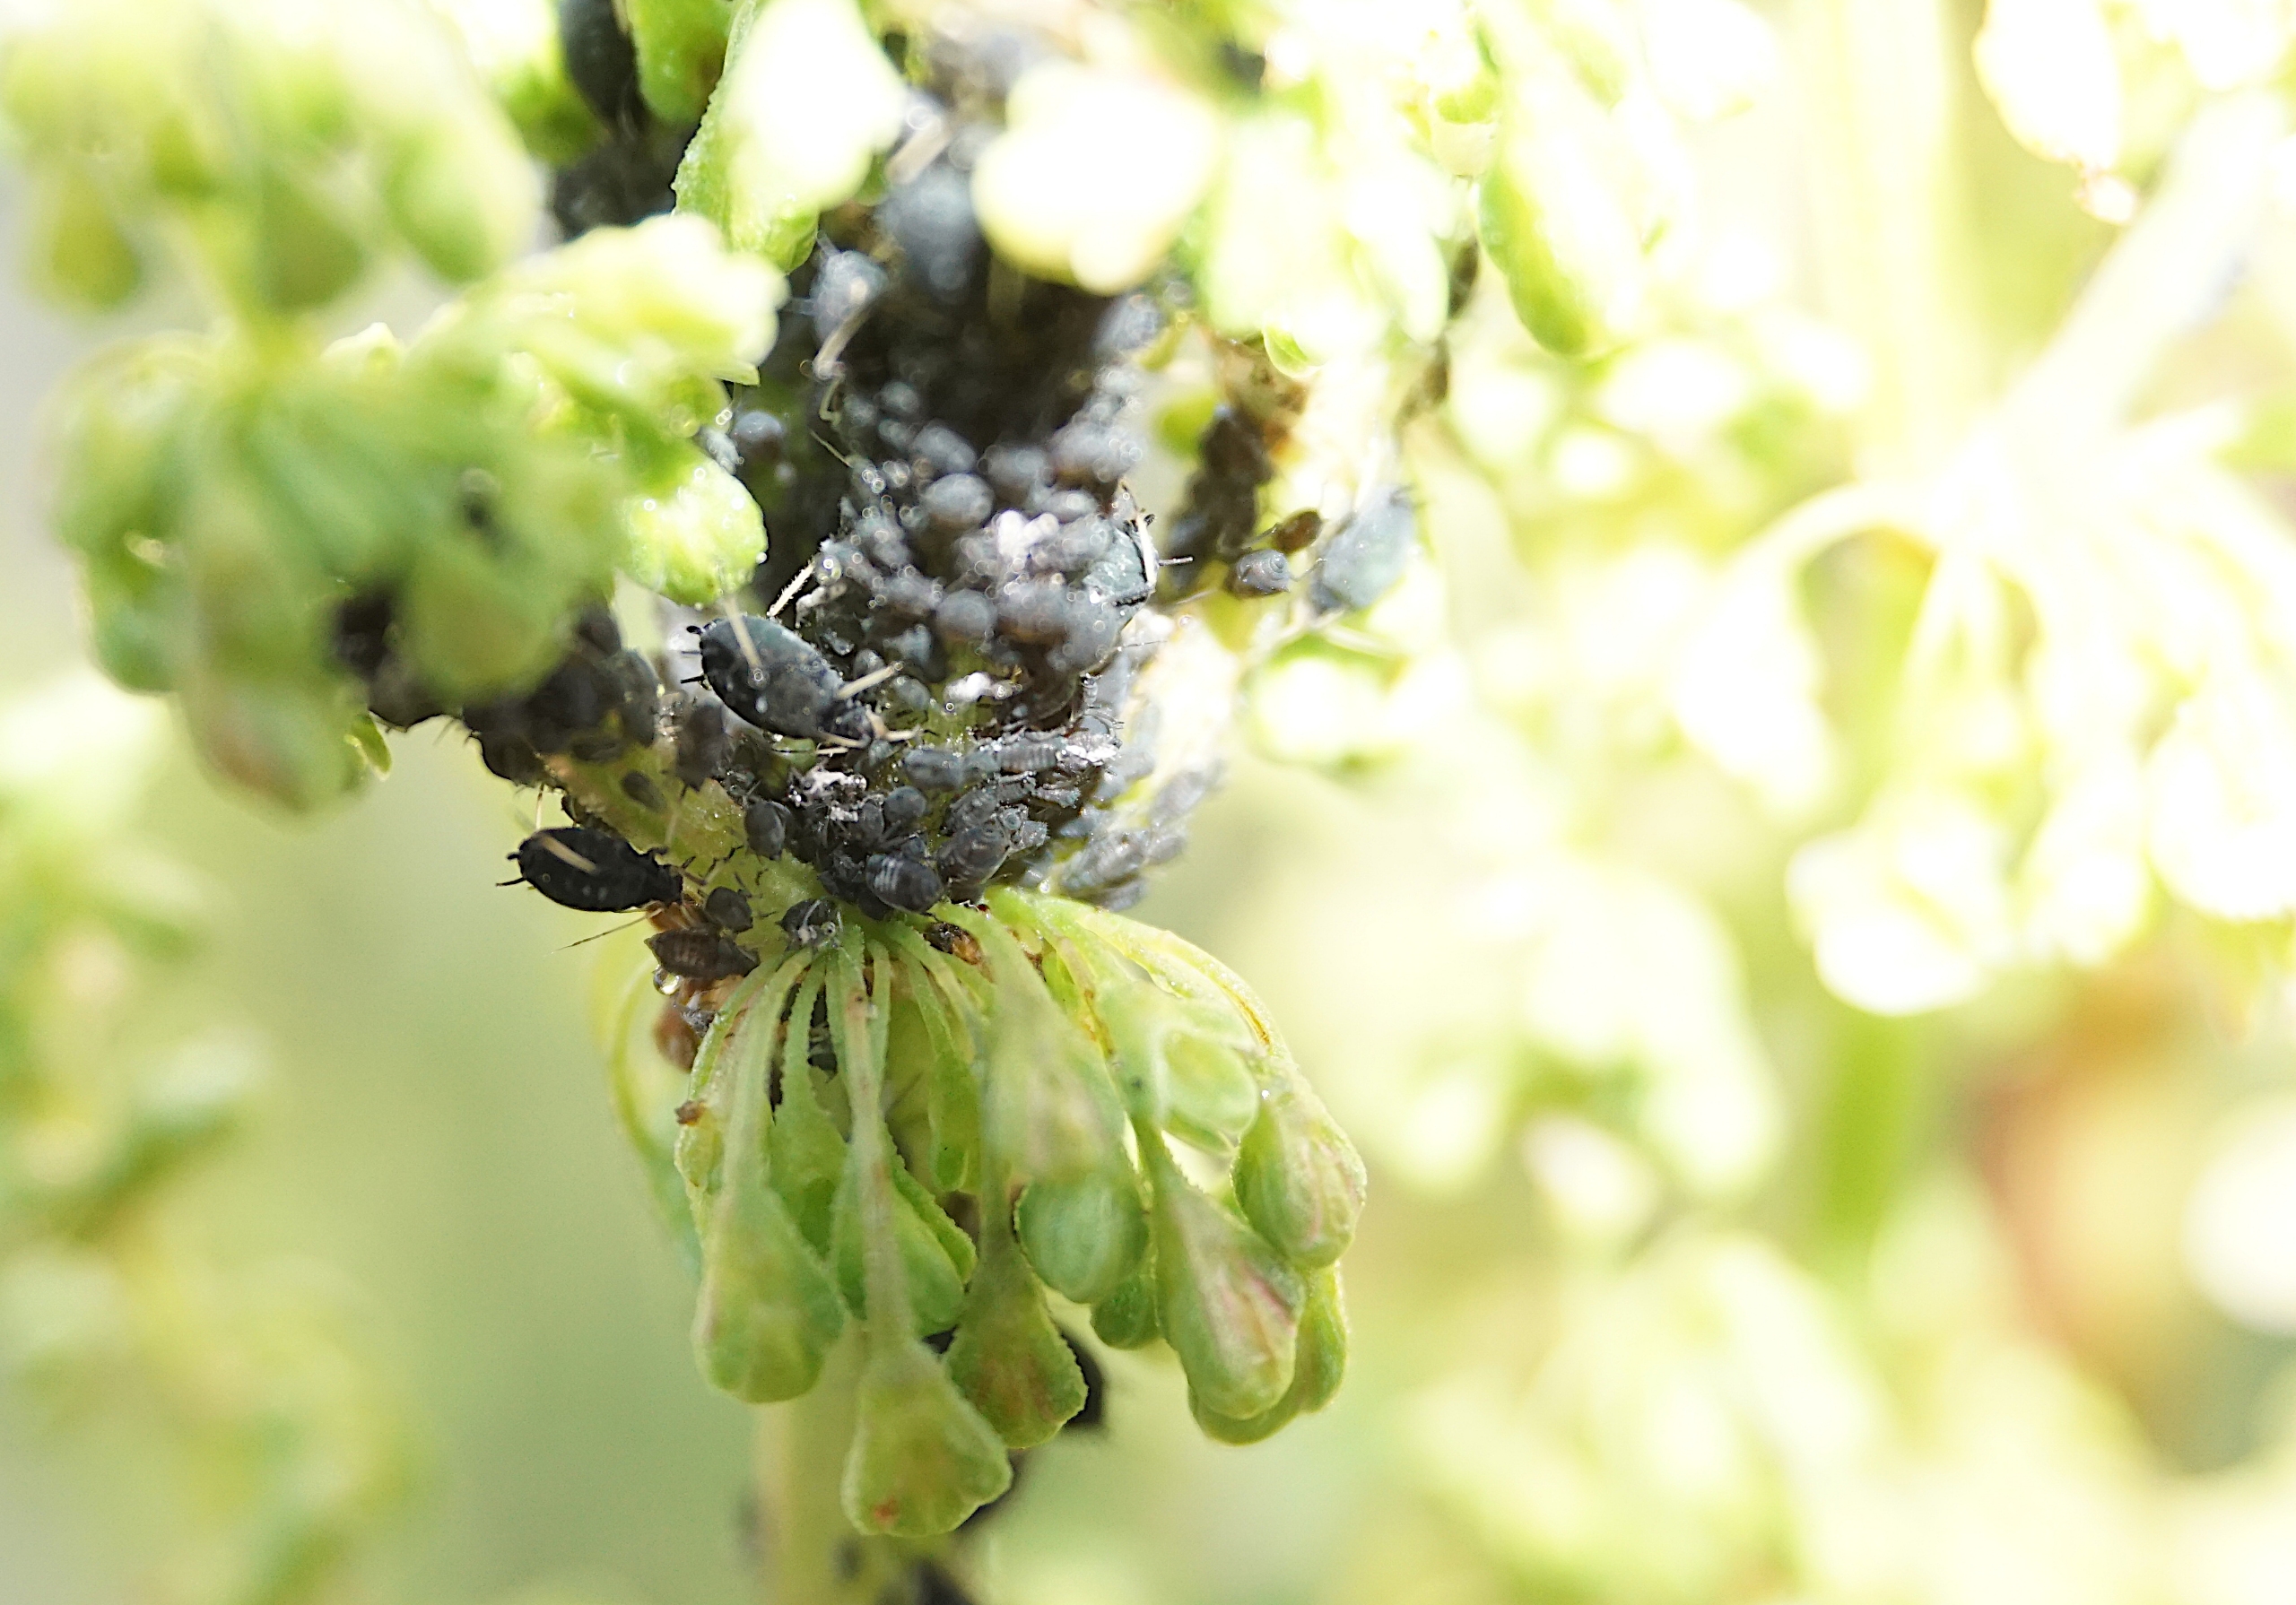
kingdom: Animalia
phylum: Arthropoda
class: Insecta
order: Hemiptera
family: Aphididae
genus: Aphis
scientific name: Aphis fabae
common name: Bedebladlus
